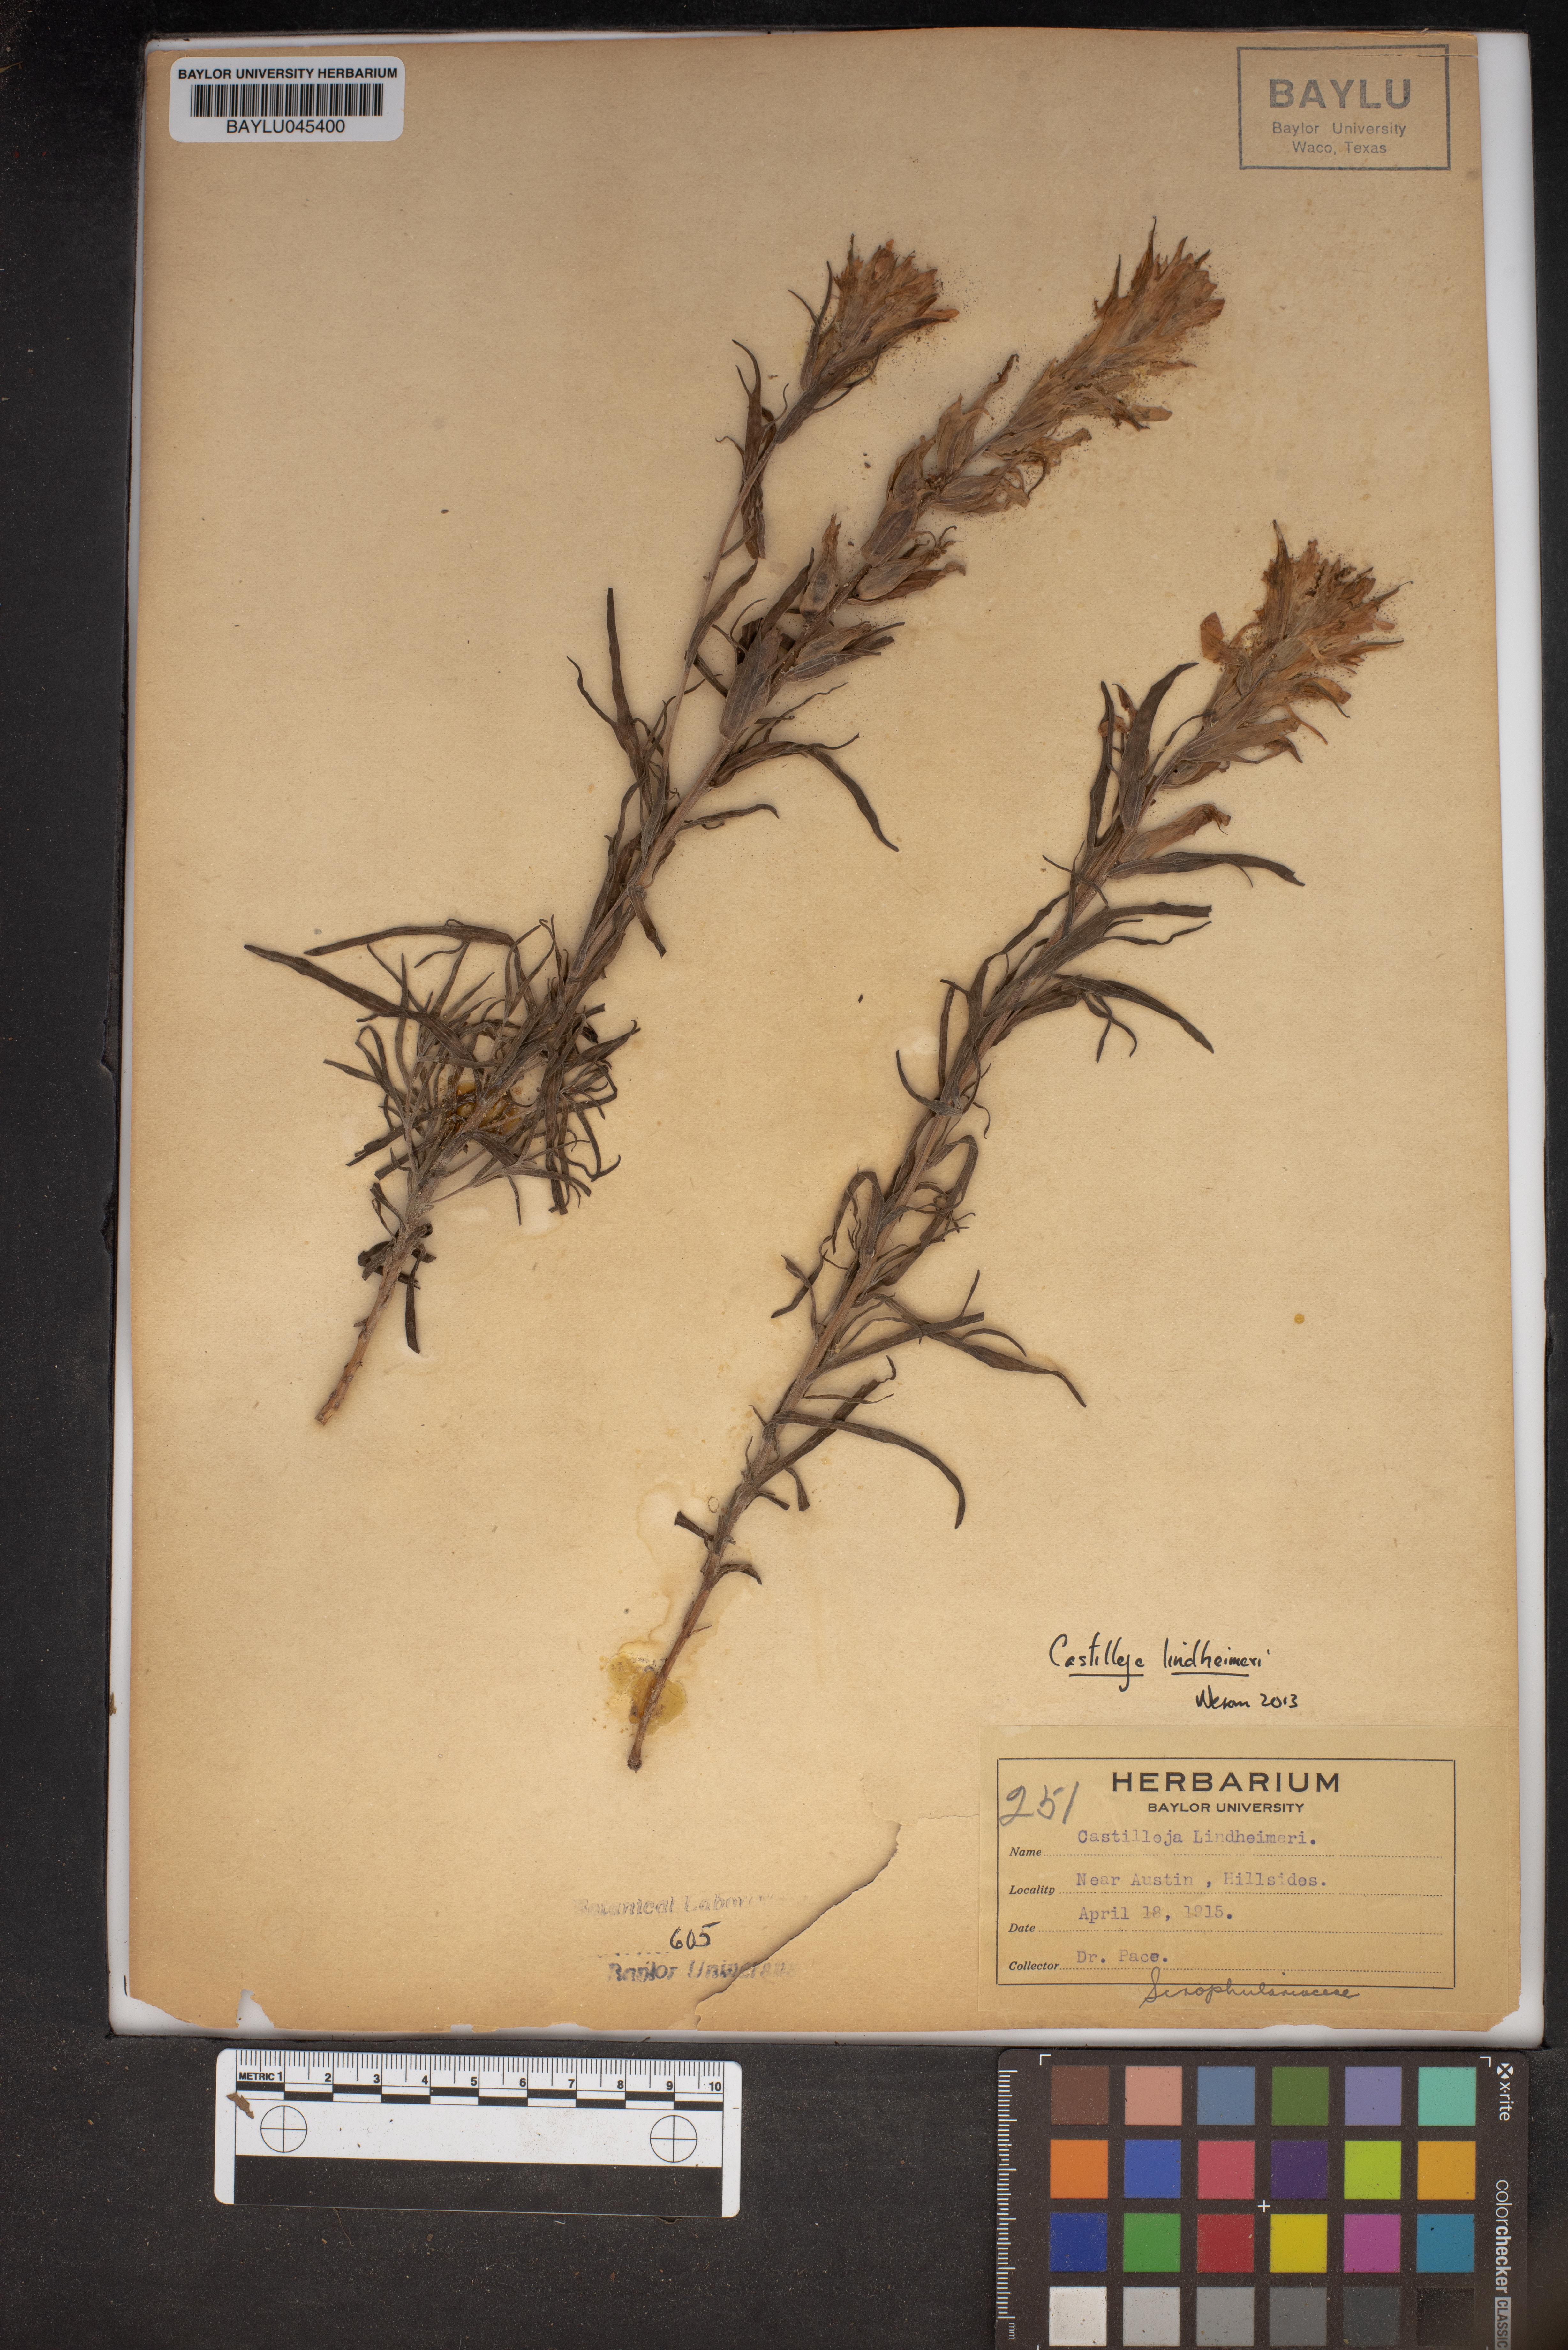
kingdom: Plantae
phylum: Tracheophyta
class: Magnoliopsida
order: Lamiales
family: Orobanchaceae
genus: Castilleja
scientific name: Castilleja lindheimeri
